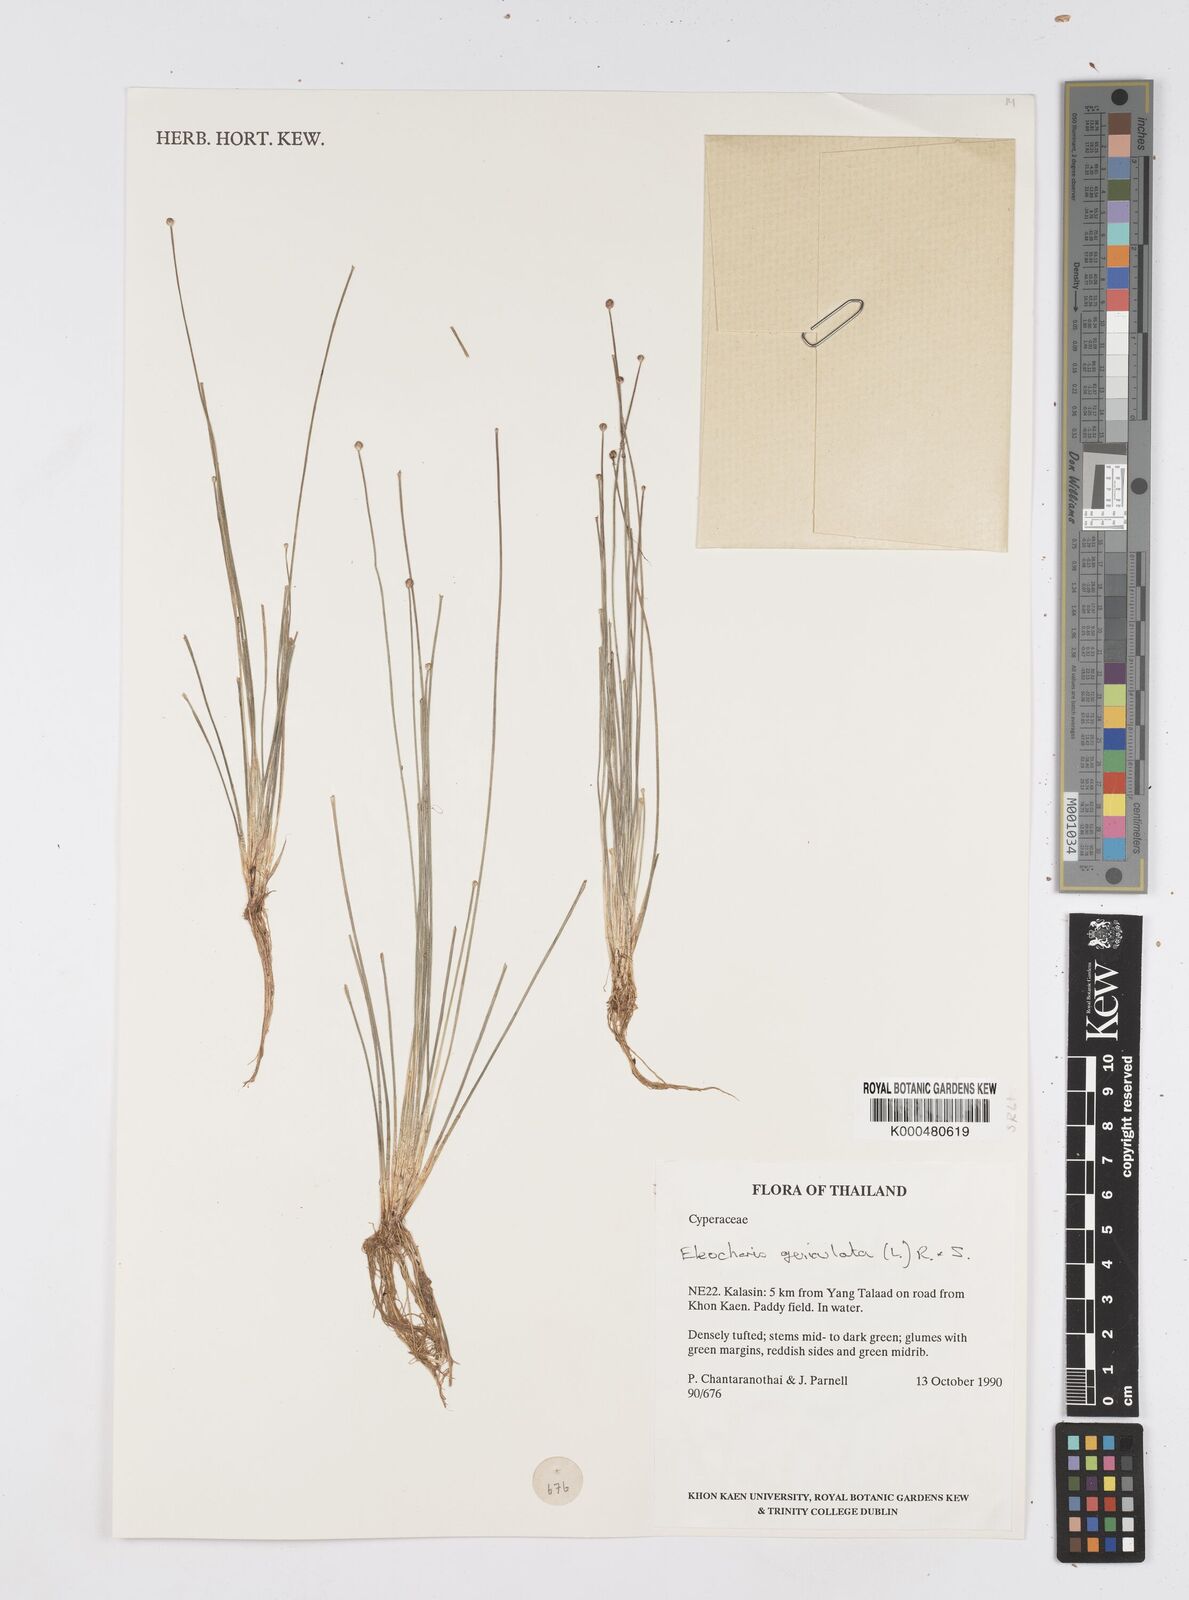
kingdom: Plantae
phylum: Tracheophyta
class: Liliopsida
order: Poales
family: Cyperaceae
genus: Eleocharis
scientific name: Eleocharis geniculata
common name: Canada spikesedge
